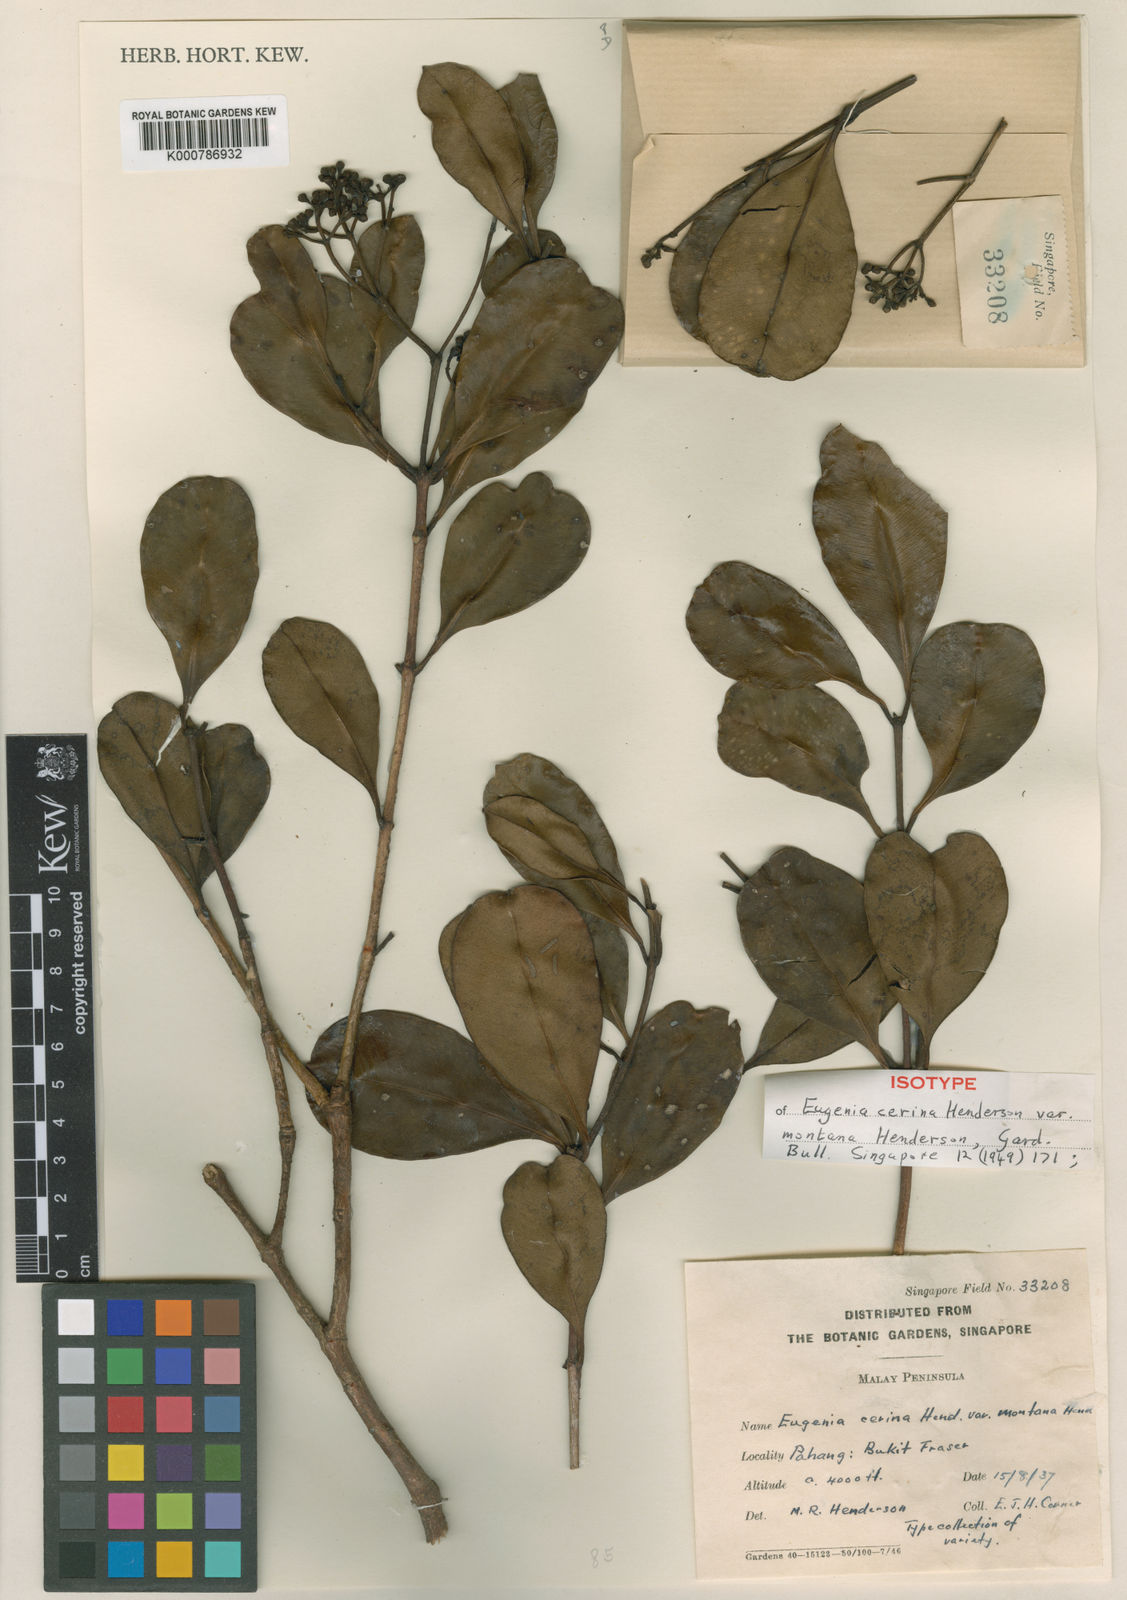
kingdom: Plantae
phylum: Tracheophyta
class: Magnoliopsida
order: Myrtales
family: Myrtaceae
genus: Syzygium
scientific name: Syzygium incarnatum
